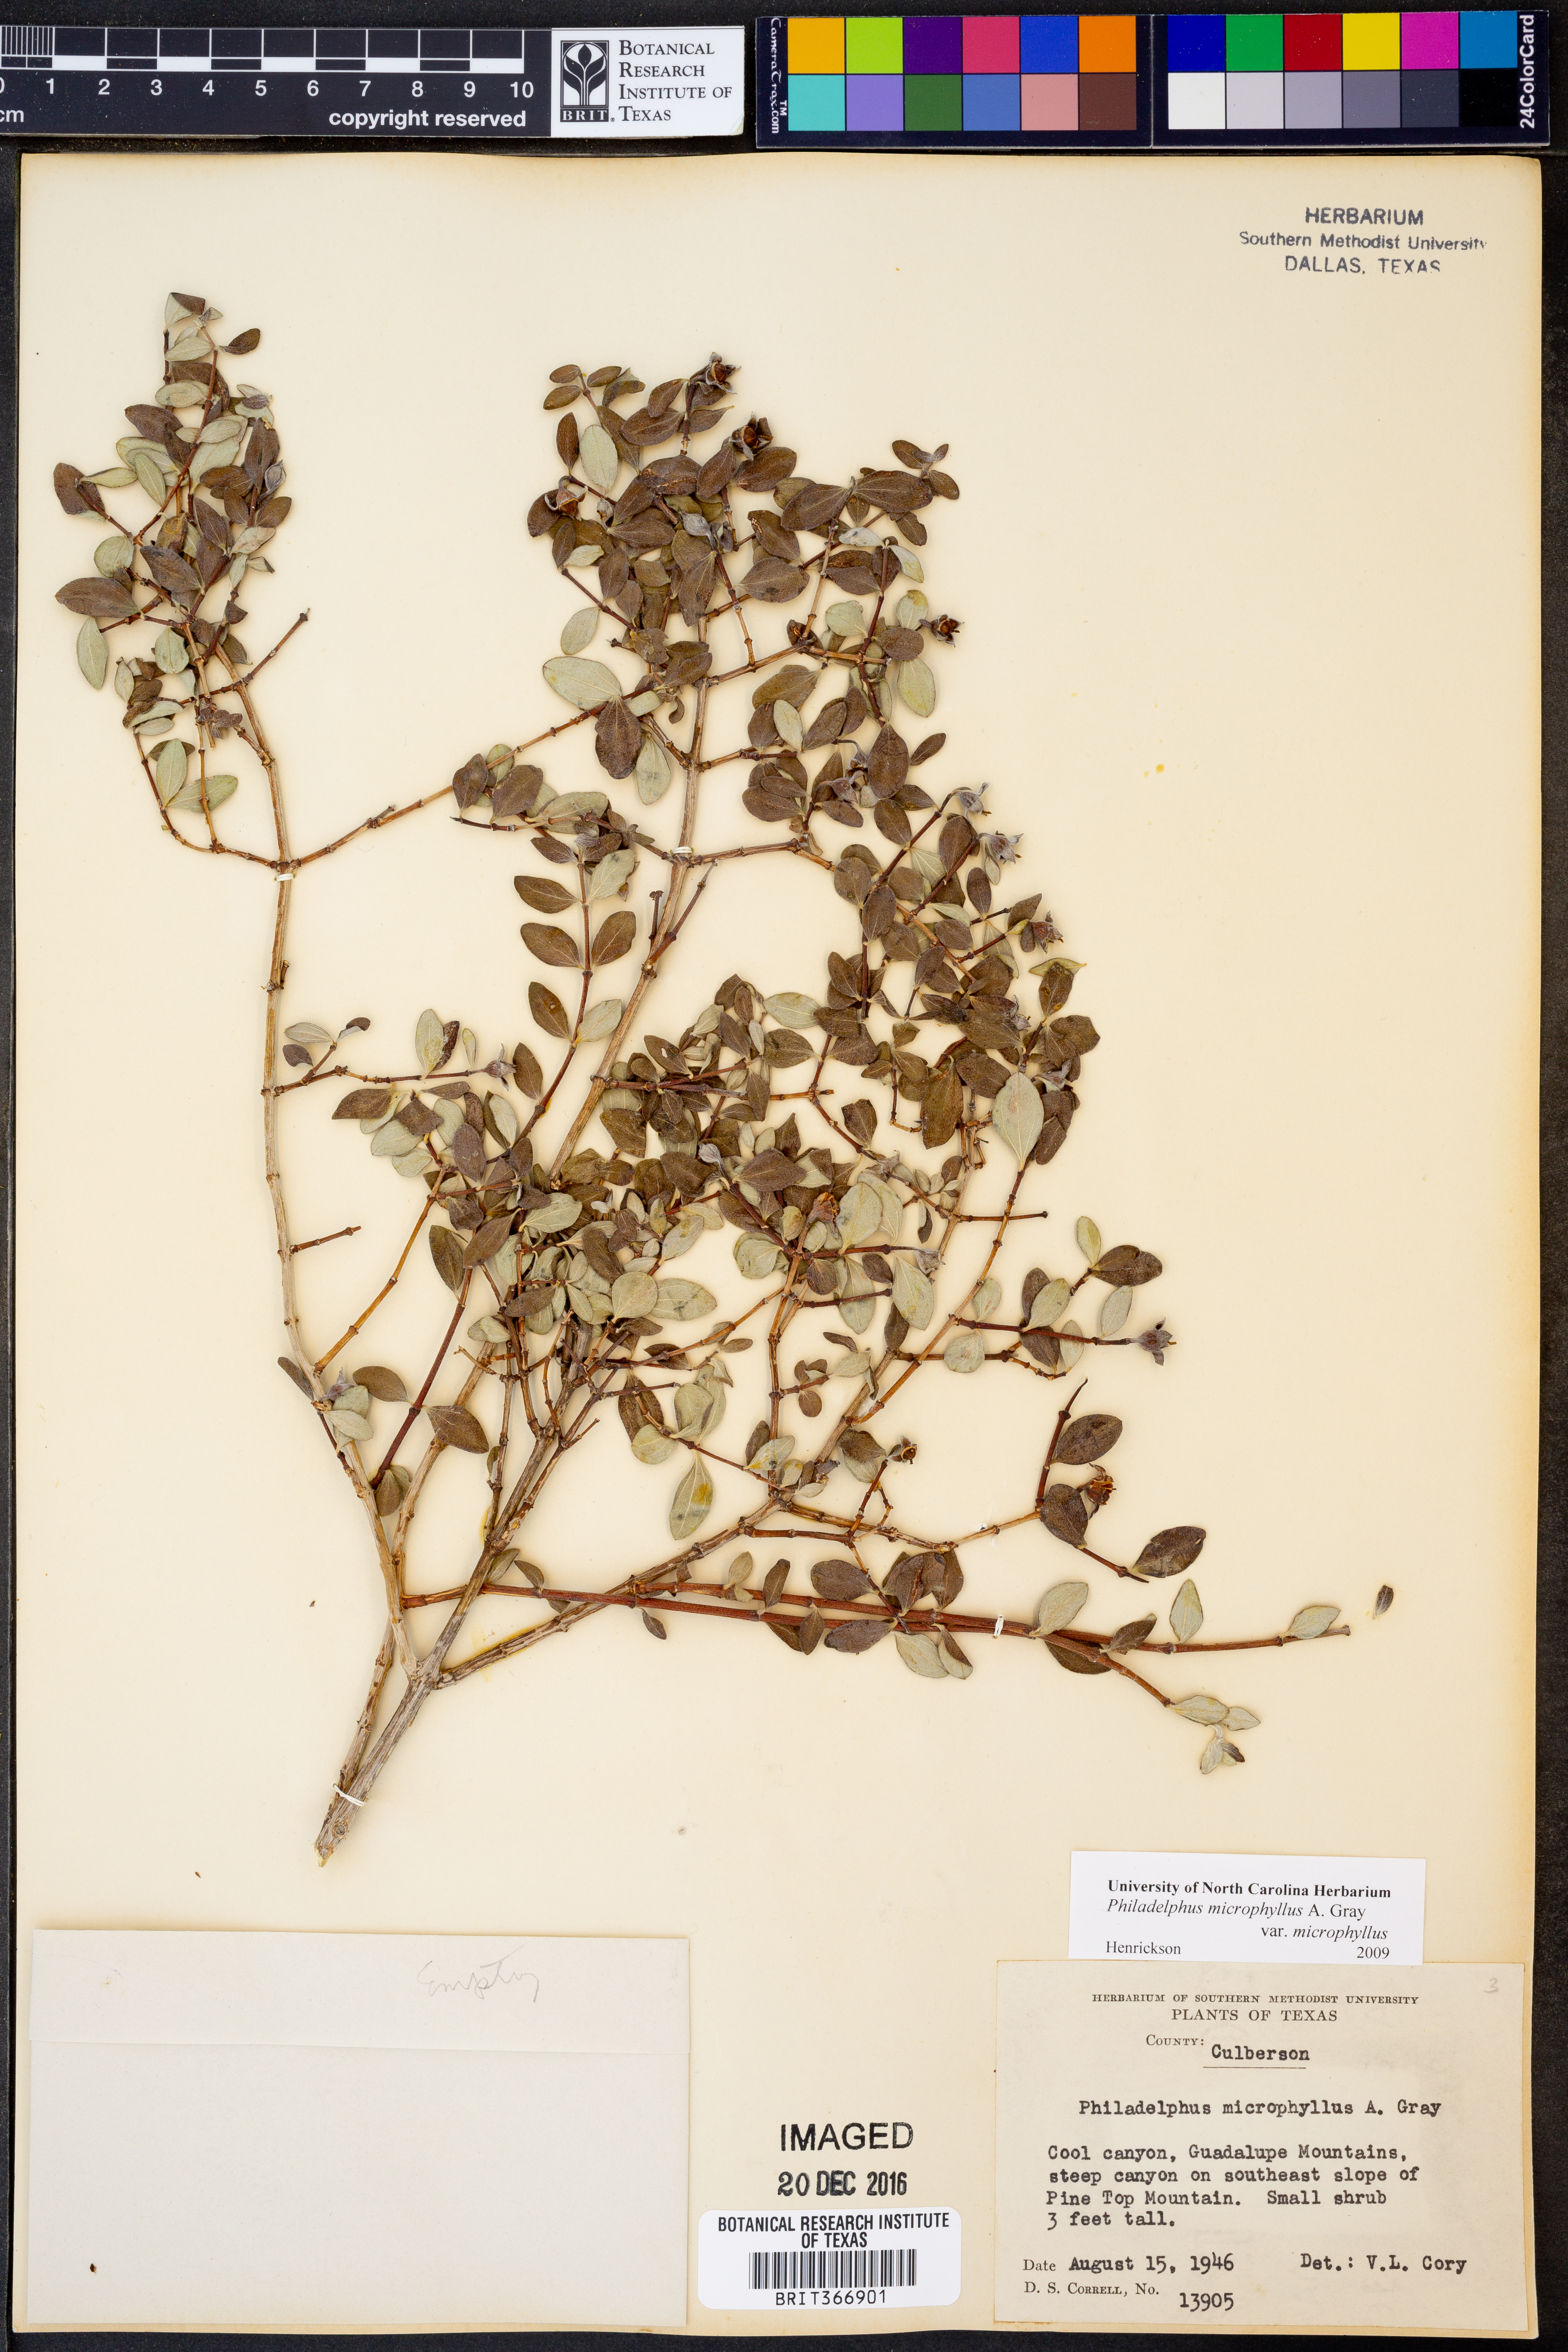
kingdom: Plantae
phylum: Tracheophyta
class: Magnoliopsida
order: Cornales
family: Hydrangeaceae
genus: Philadelphus
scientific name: Philadelphus microphyllus
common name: Desert mock orange
